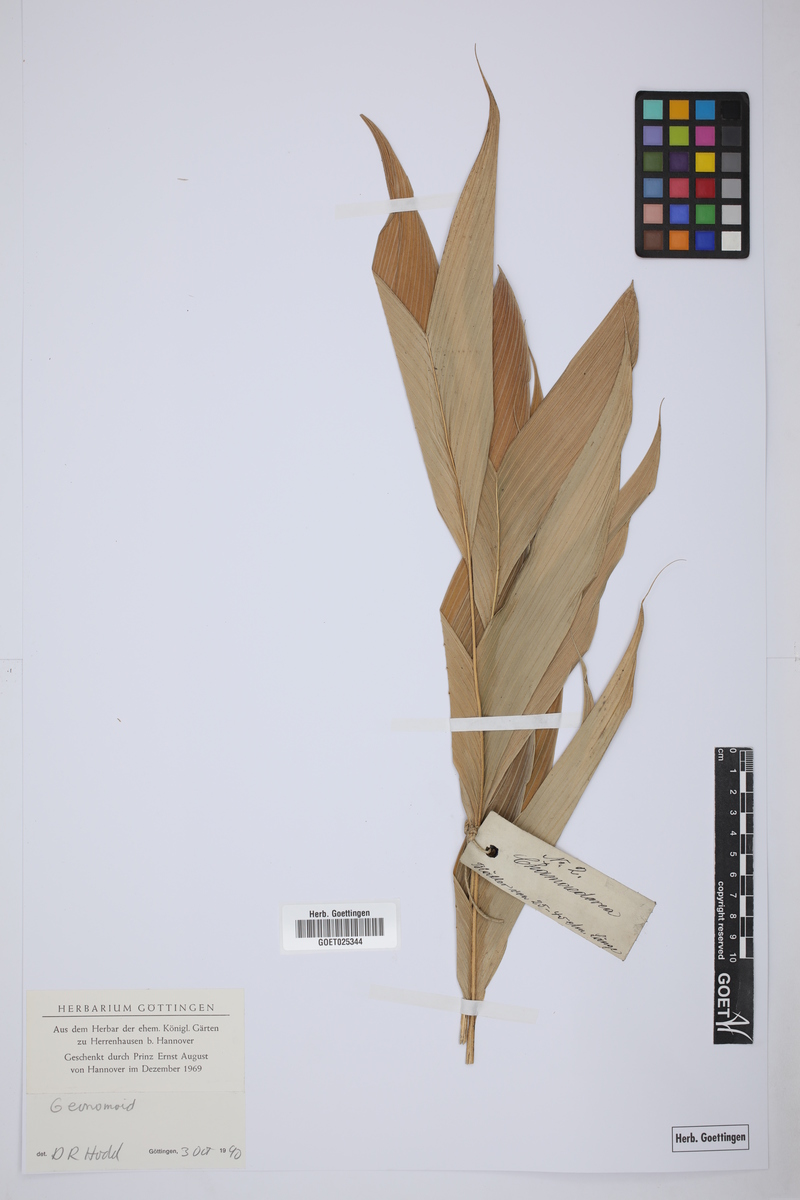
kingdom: Plantae
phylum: Tracheophyta
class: Liliopsida
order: Arecales
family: Arecaceae
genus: Chamaedorea
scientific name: Chamaedorea pinnatifrons
